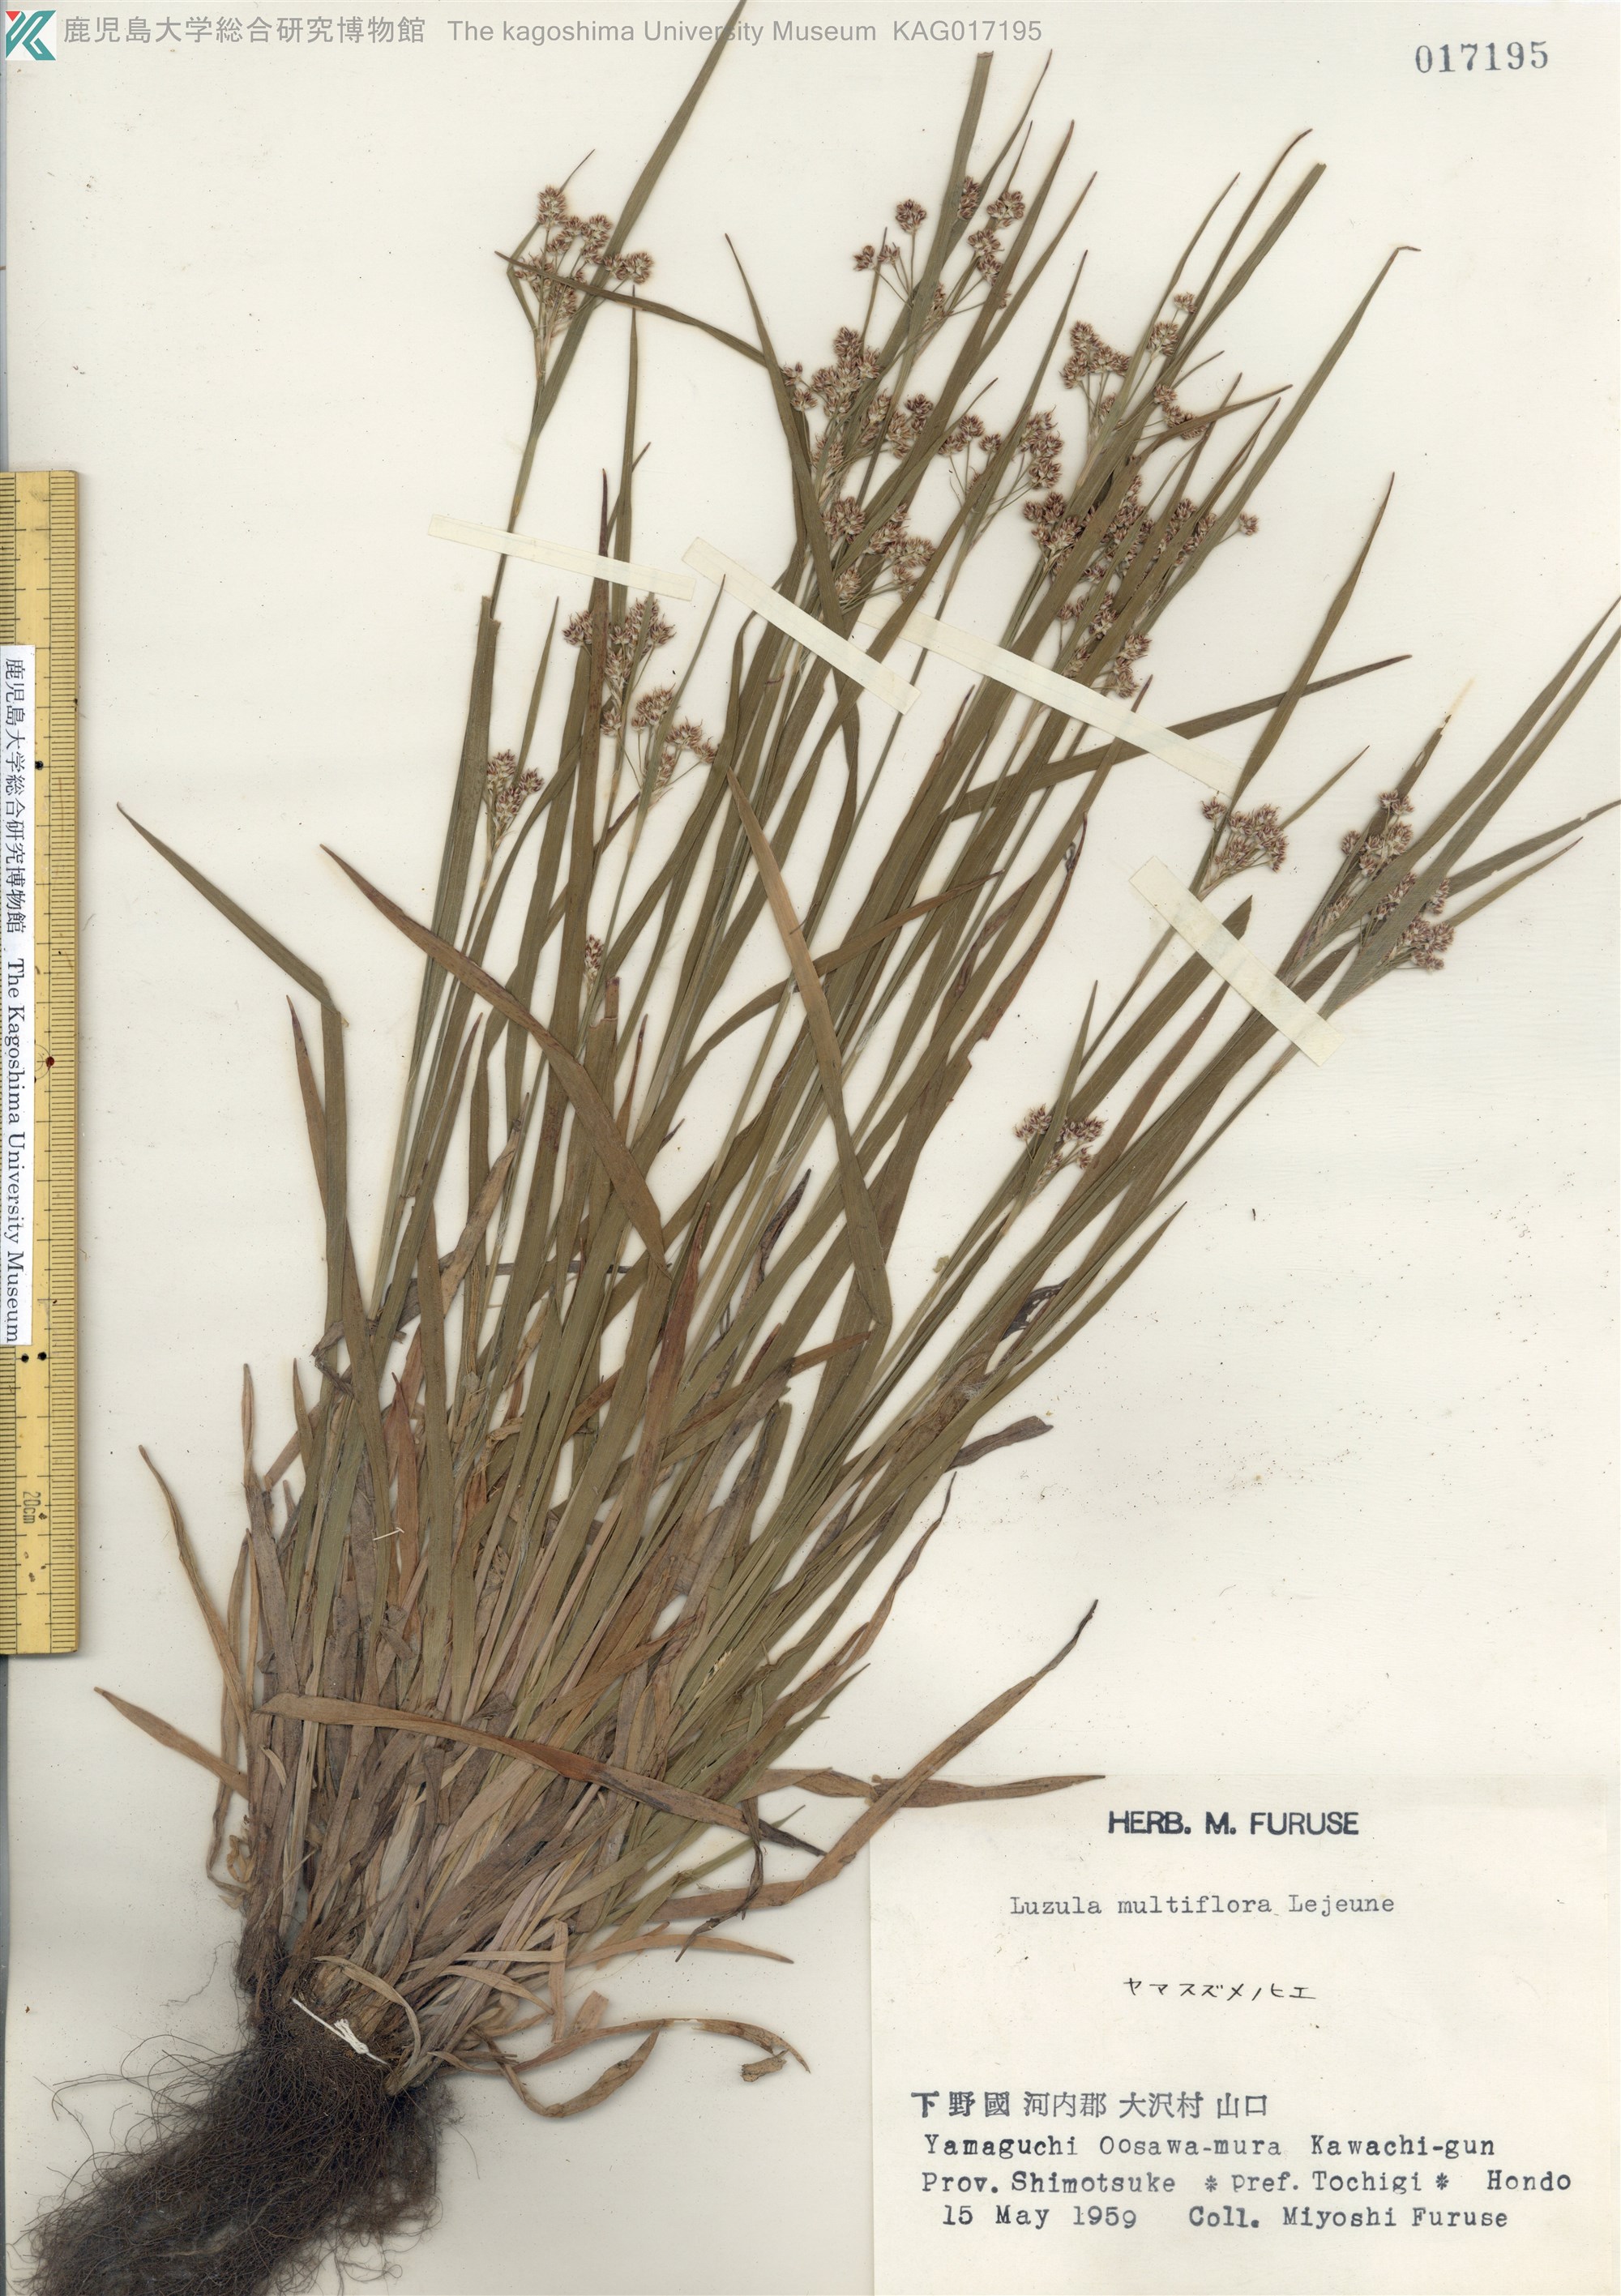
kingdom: Plantae
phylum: Tracheophyta
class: Liliopsida
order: Poales
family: Juncaceae
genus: Luzula
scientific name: Luzula multiflora
